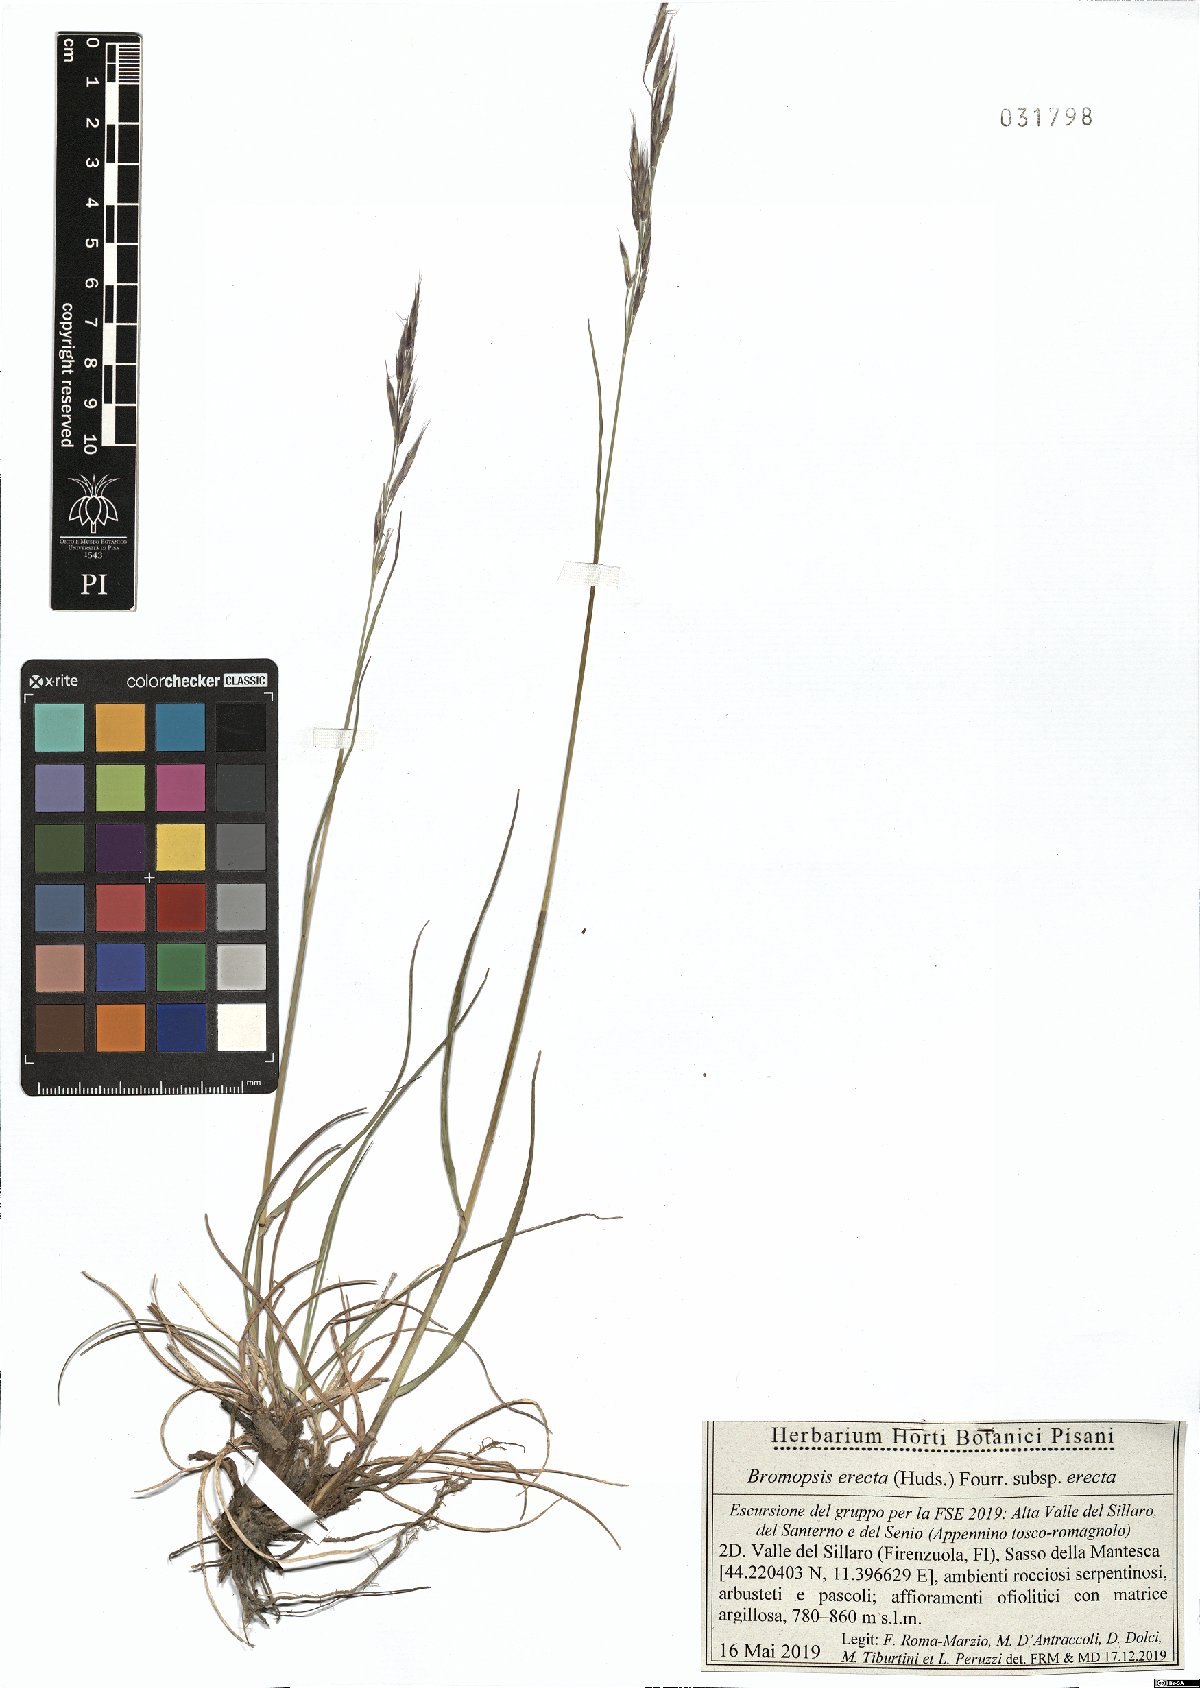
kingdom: Plantae
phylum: Tracheophyta
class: Liliopsida
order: Poales
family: Poaceae
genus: Bromus
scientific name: Bromus erectus
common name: Erect brome
